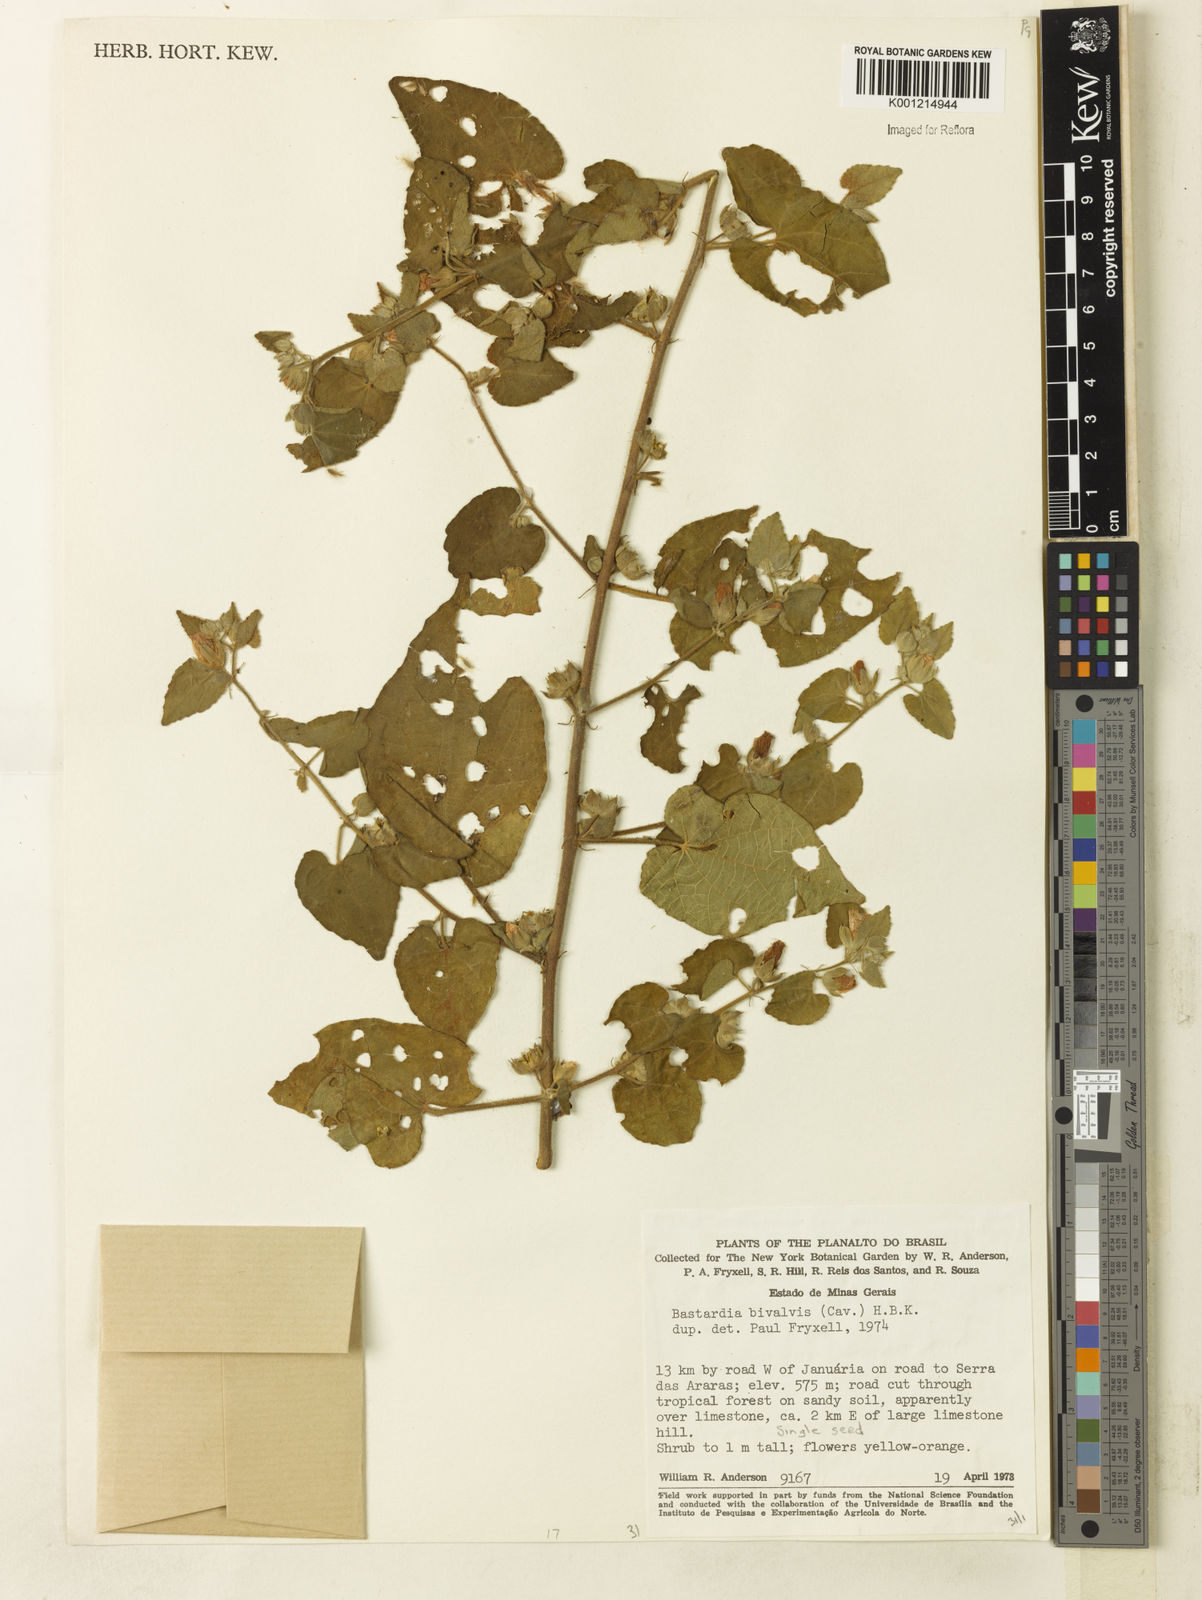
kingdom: Plantae
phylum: Tracheophyta
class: Magnoliopsida
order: Malvales
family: Malvaceae
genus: Abutilon
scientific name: Abutilon
